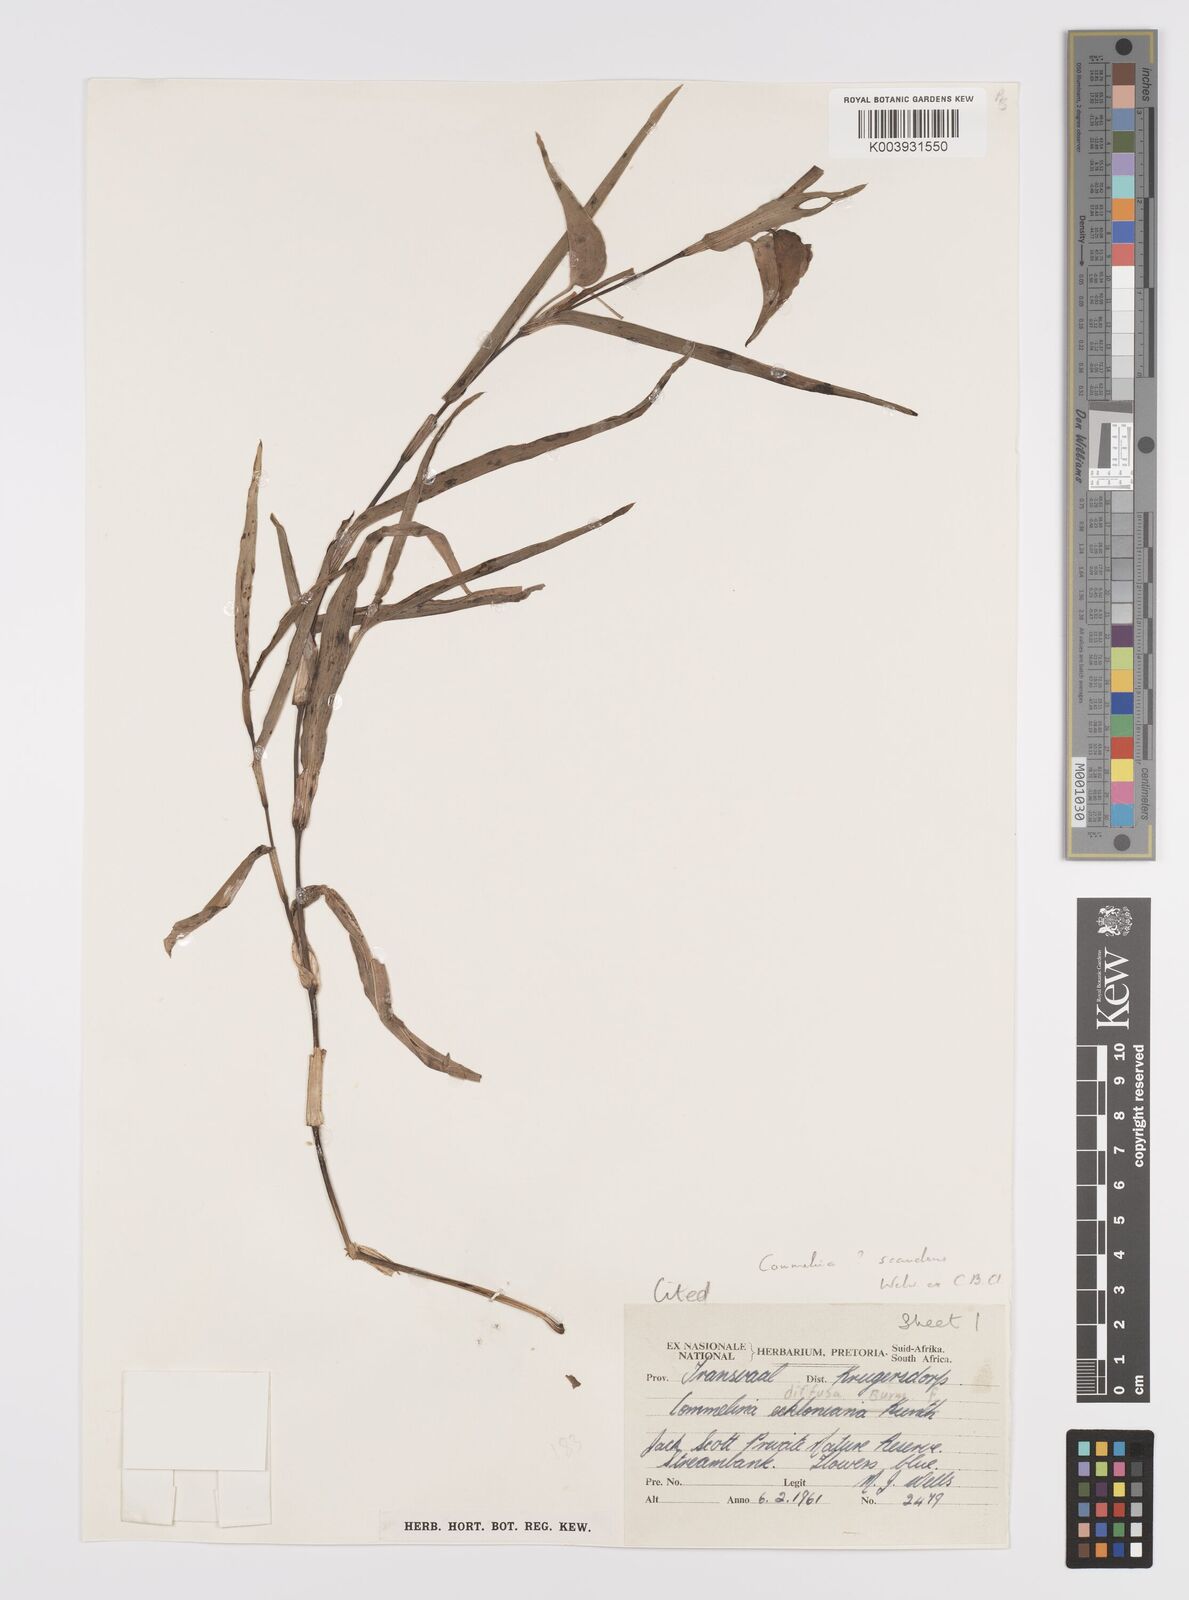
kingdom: Plantae
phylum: Tracheophyta
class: Liliopsida
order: Commelinales
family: Commelinaceae
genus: Commelina
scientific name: Commelina scandens
